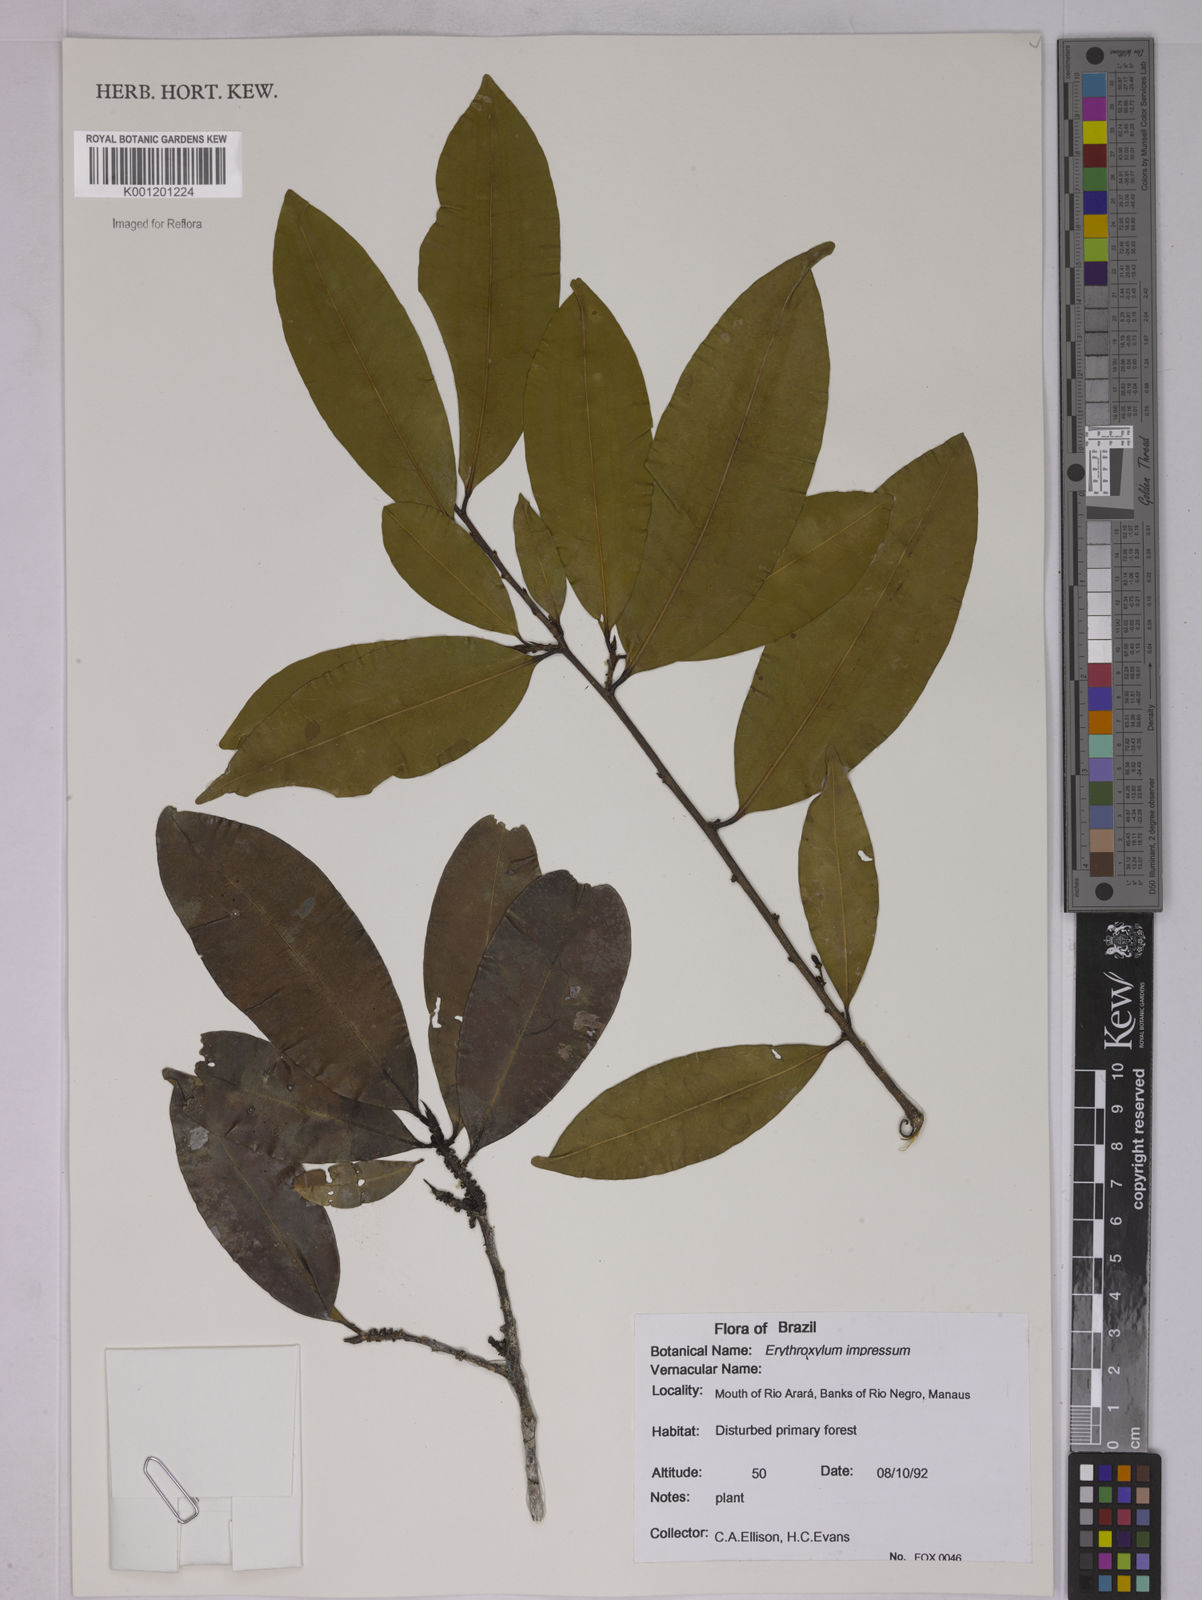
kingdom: Plantae
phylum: Tracheophyta
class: Magnoliopsida
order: Malpighiales
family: Erythroxylaceae
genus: Erythroxylum
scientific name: Erythroxylum impressum
